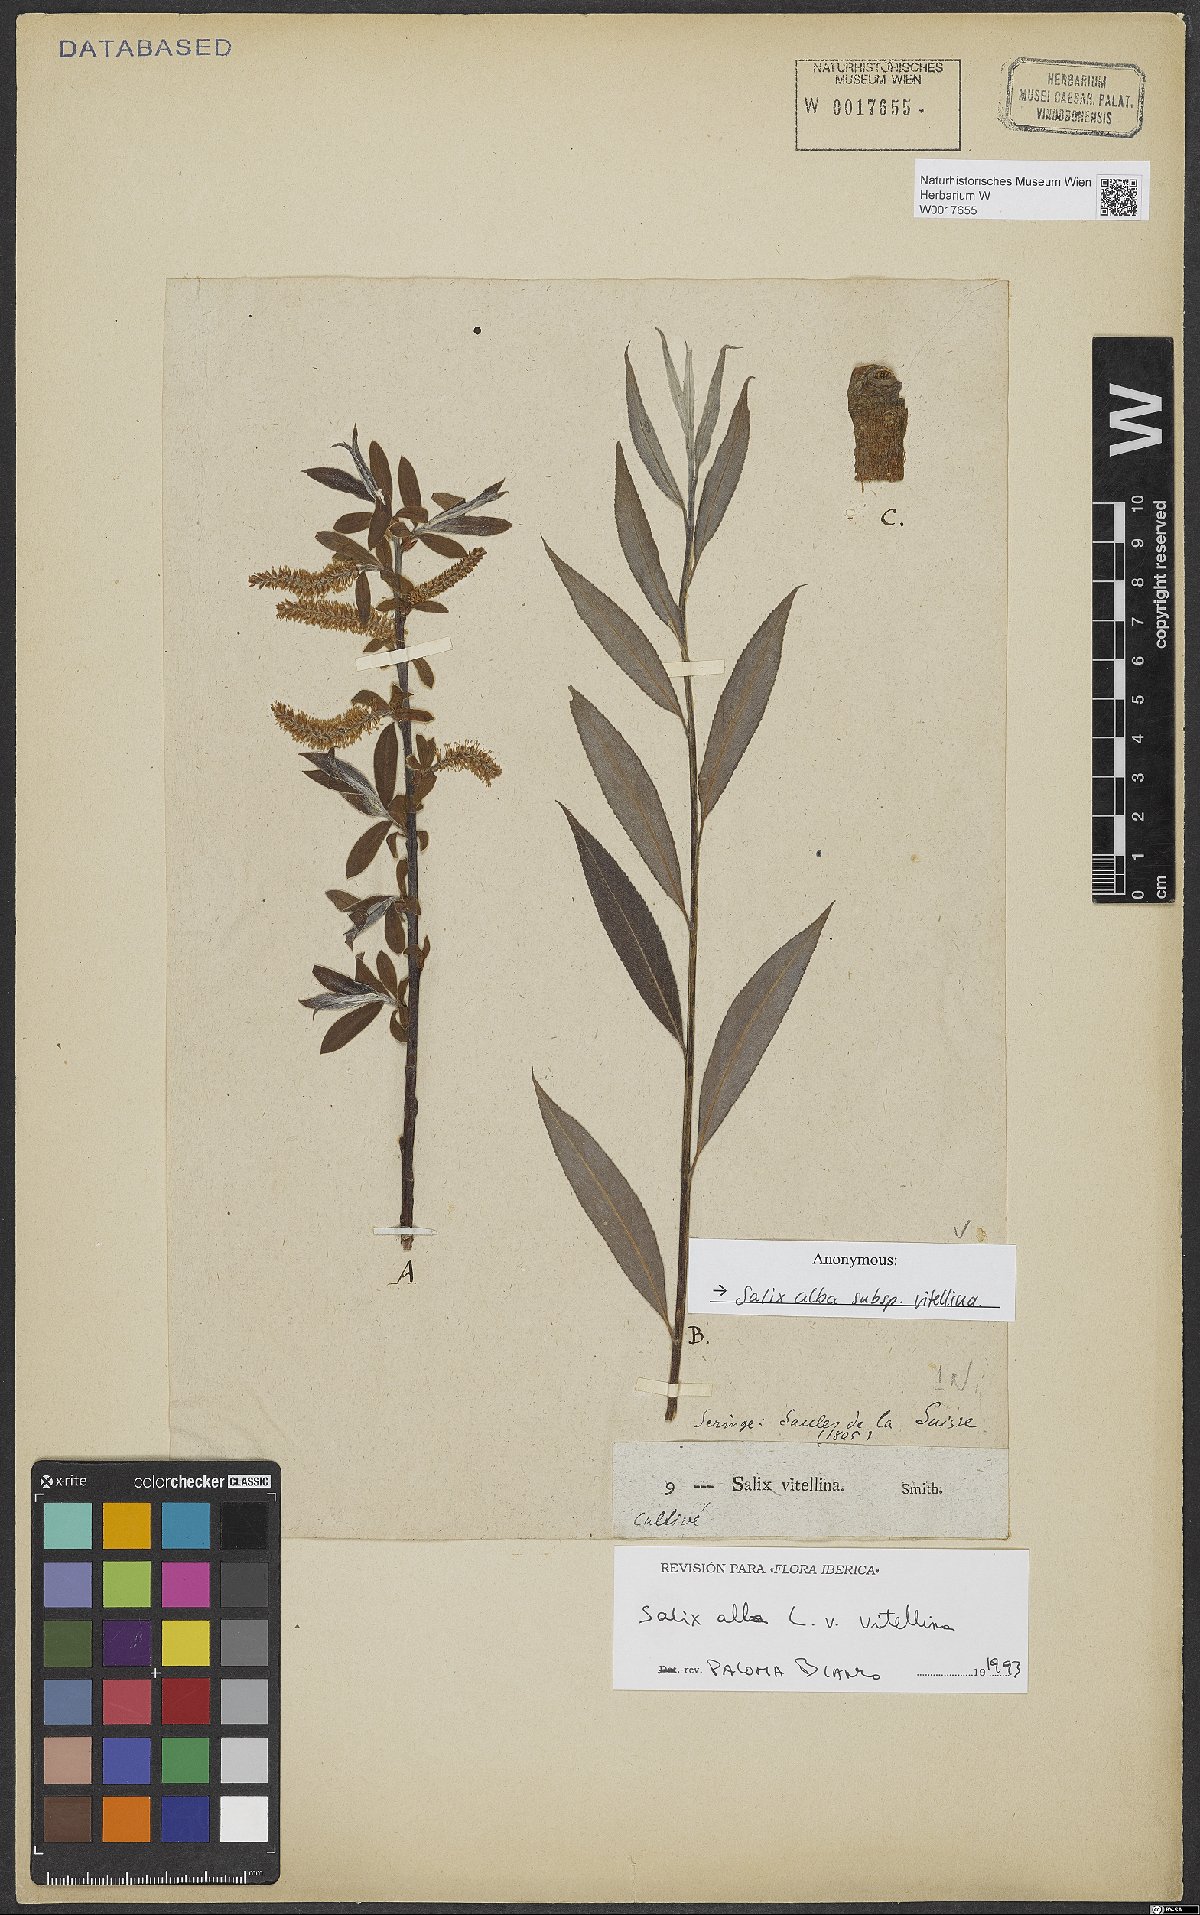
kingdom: Plantae
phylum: Tracheophyta
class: Magnoliopsida
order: Malpighiales
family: Salicaceae
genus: Salix
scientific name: Salix alba
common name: White willow
